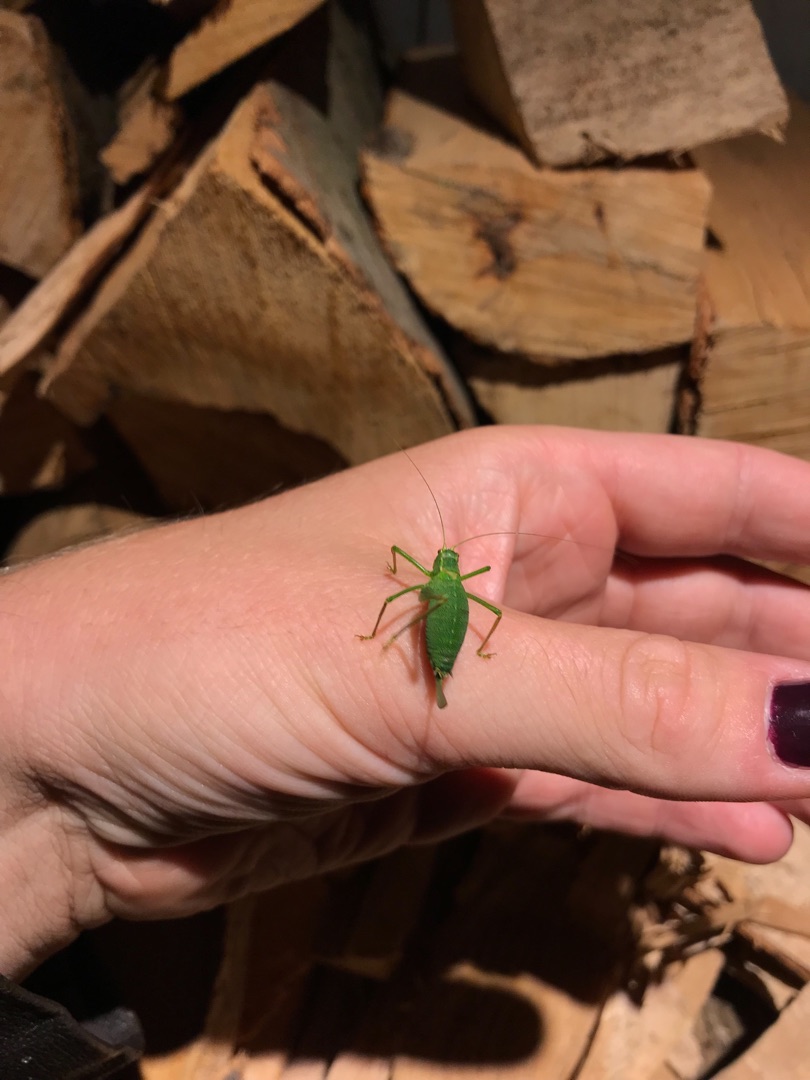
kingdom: Animalia
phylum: Arthropoda
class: Insecta
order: Orthoptera
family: Tettigoniidae
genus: Leptophyes
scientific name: Leptophyes punctatissima
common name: Krumknivgræshoppe
